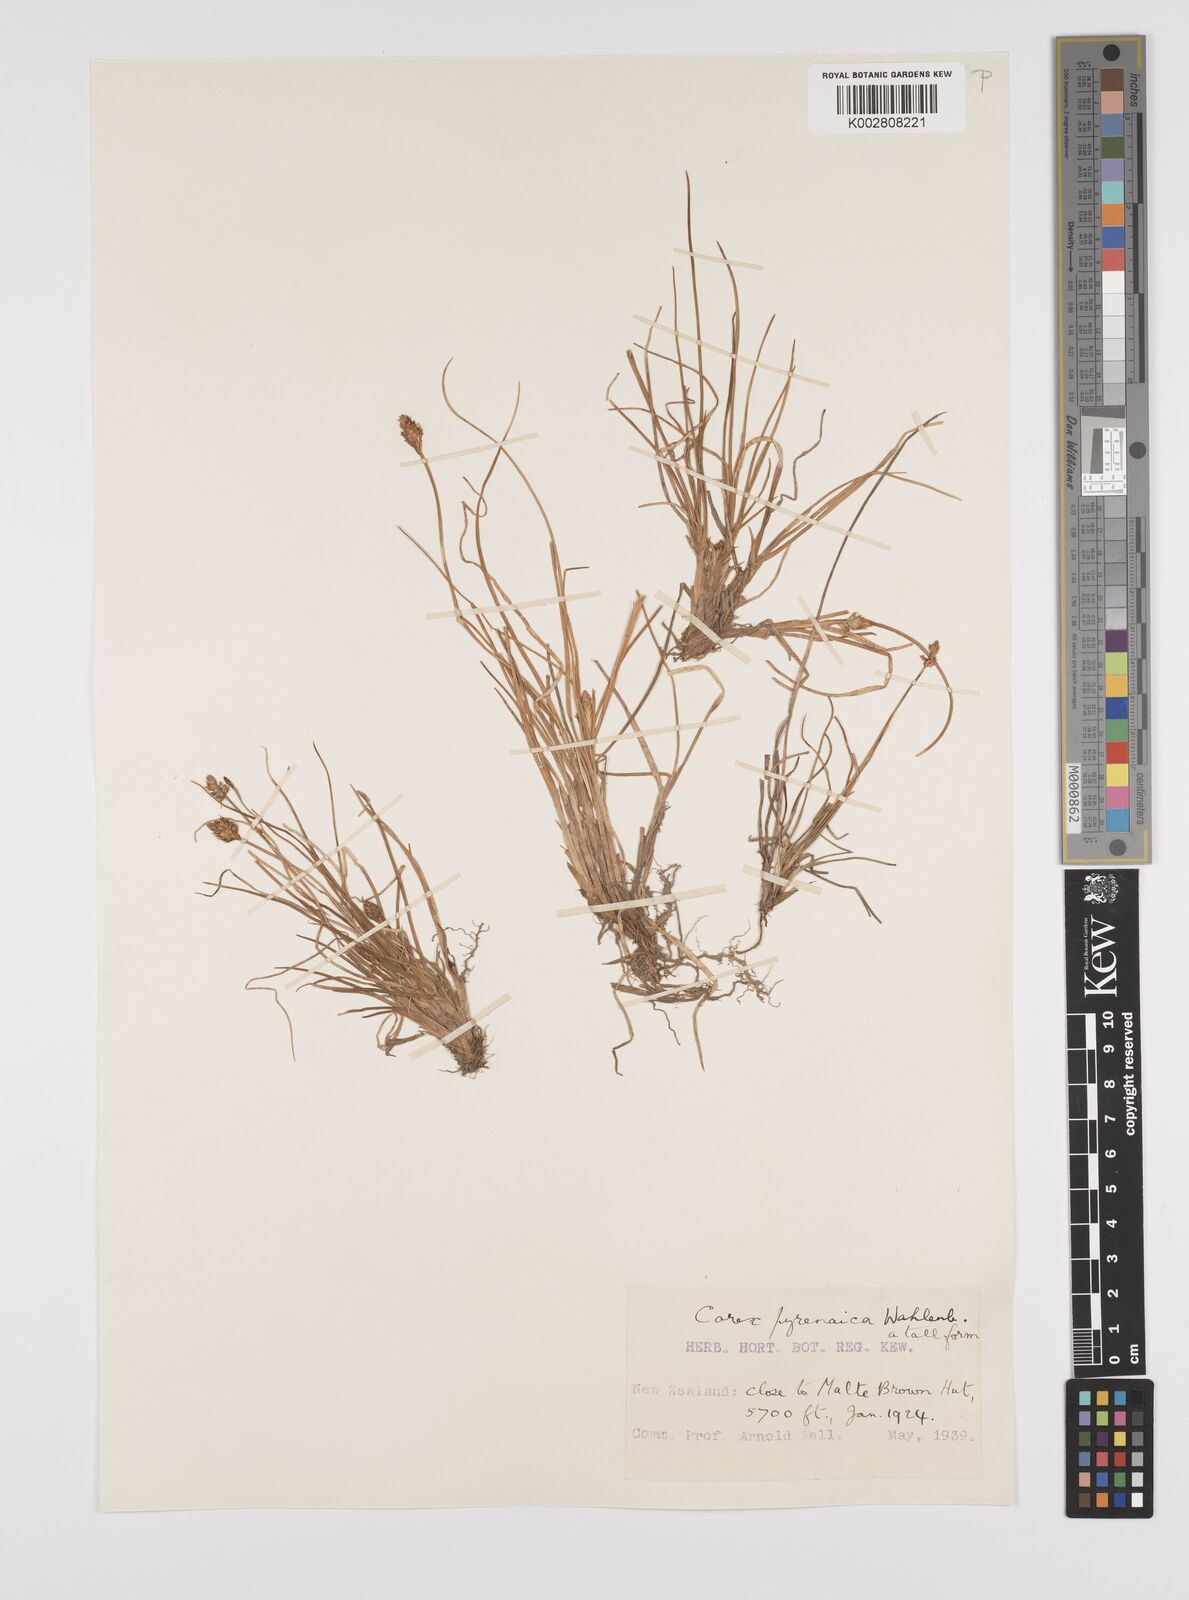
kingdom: Plantae
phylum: Tracheophyta
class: Liliopsida
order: Poales
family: Cyperaceae
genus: Carex
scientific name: Carex pyrenaica
